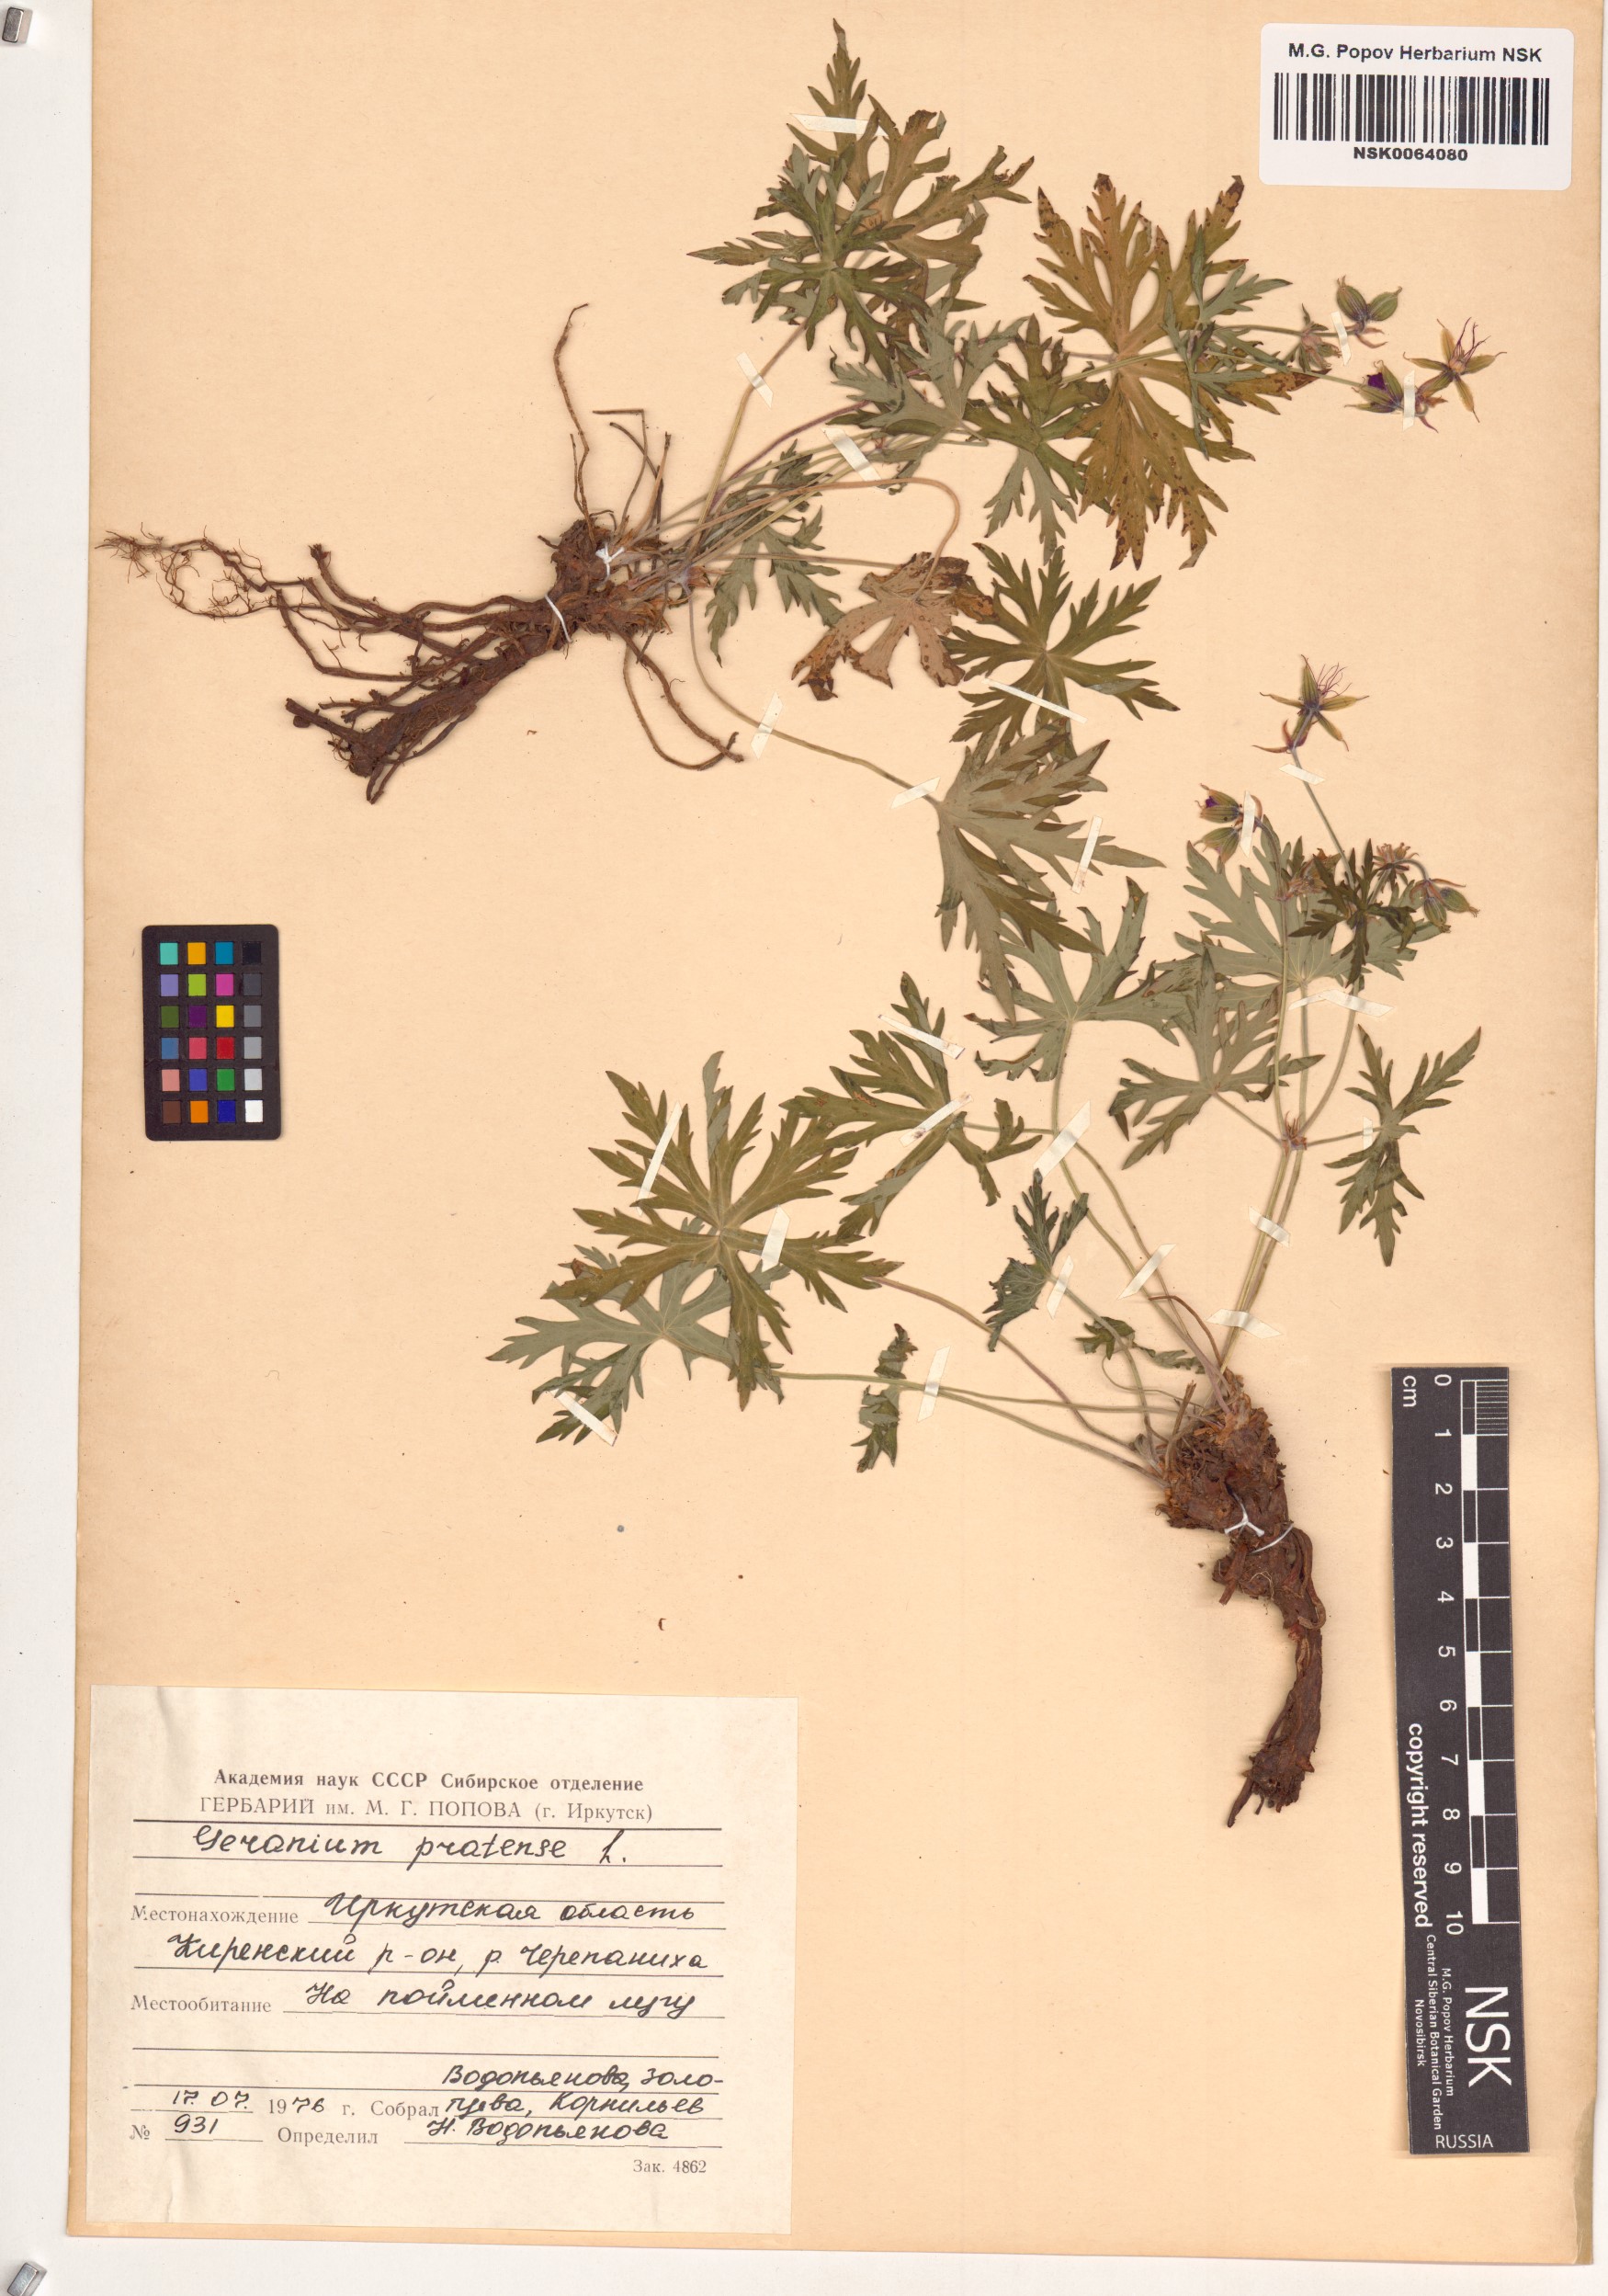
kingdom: Plantae
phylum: Tracheophyta
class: Magnoliopsida
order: Geraniales
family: Geraniaceae
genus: Geranium
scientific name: Geranium pratense
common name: Meadow crane's-bill
